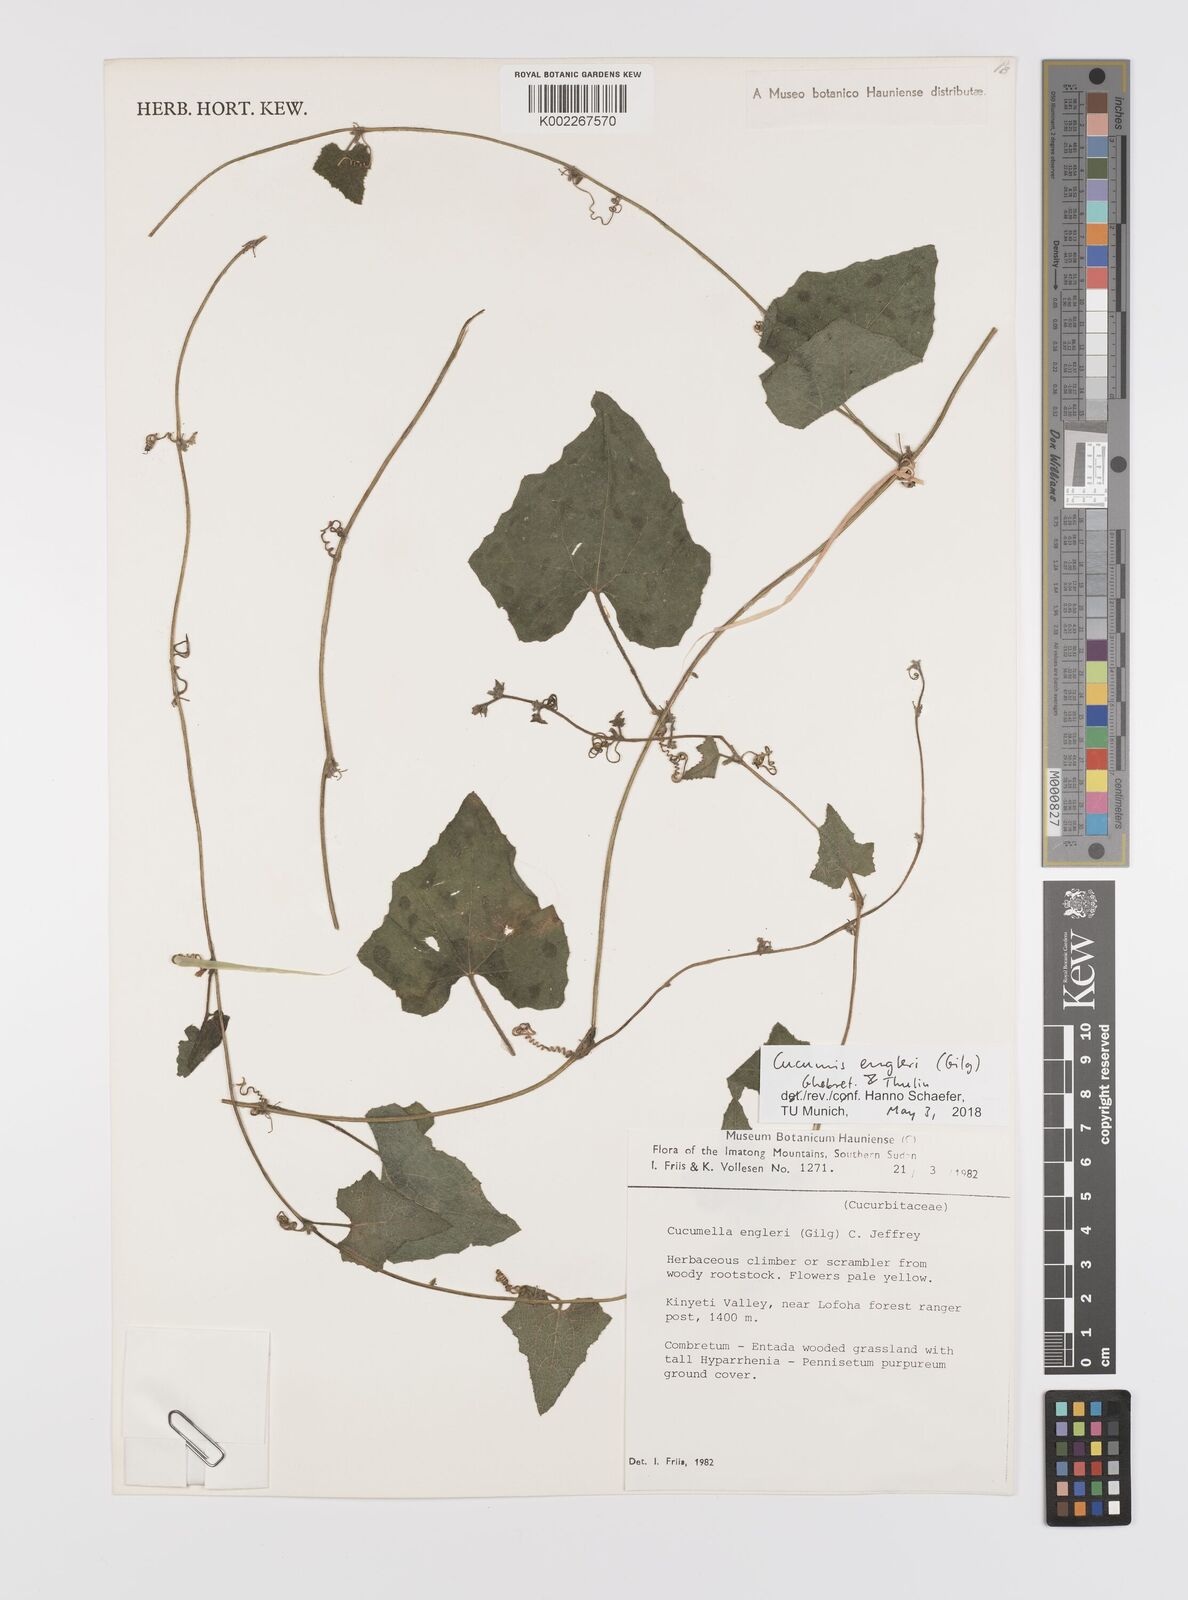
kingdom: Plantae
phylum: Tracheophyta
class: Magnoliopsida
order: Cucurbitales
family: Cucurbitaceae
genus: Cucumis
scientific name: Cucumis engleri
